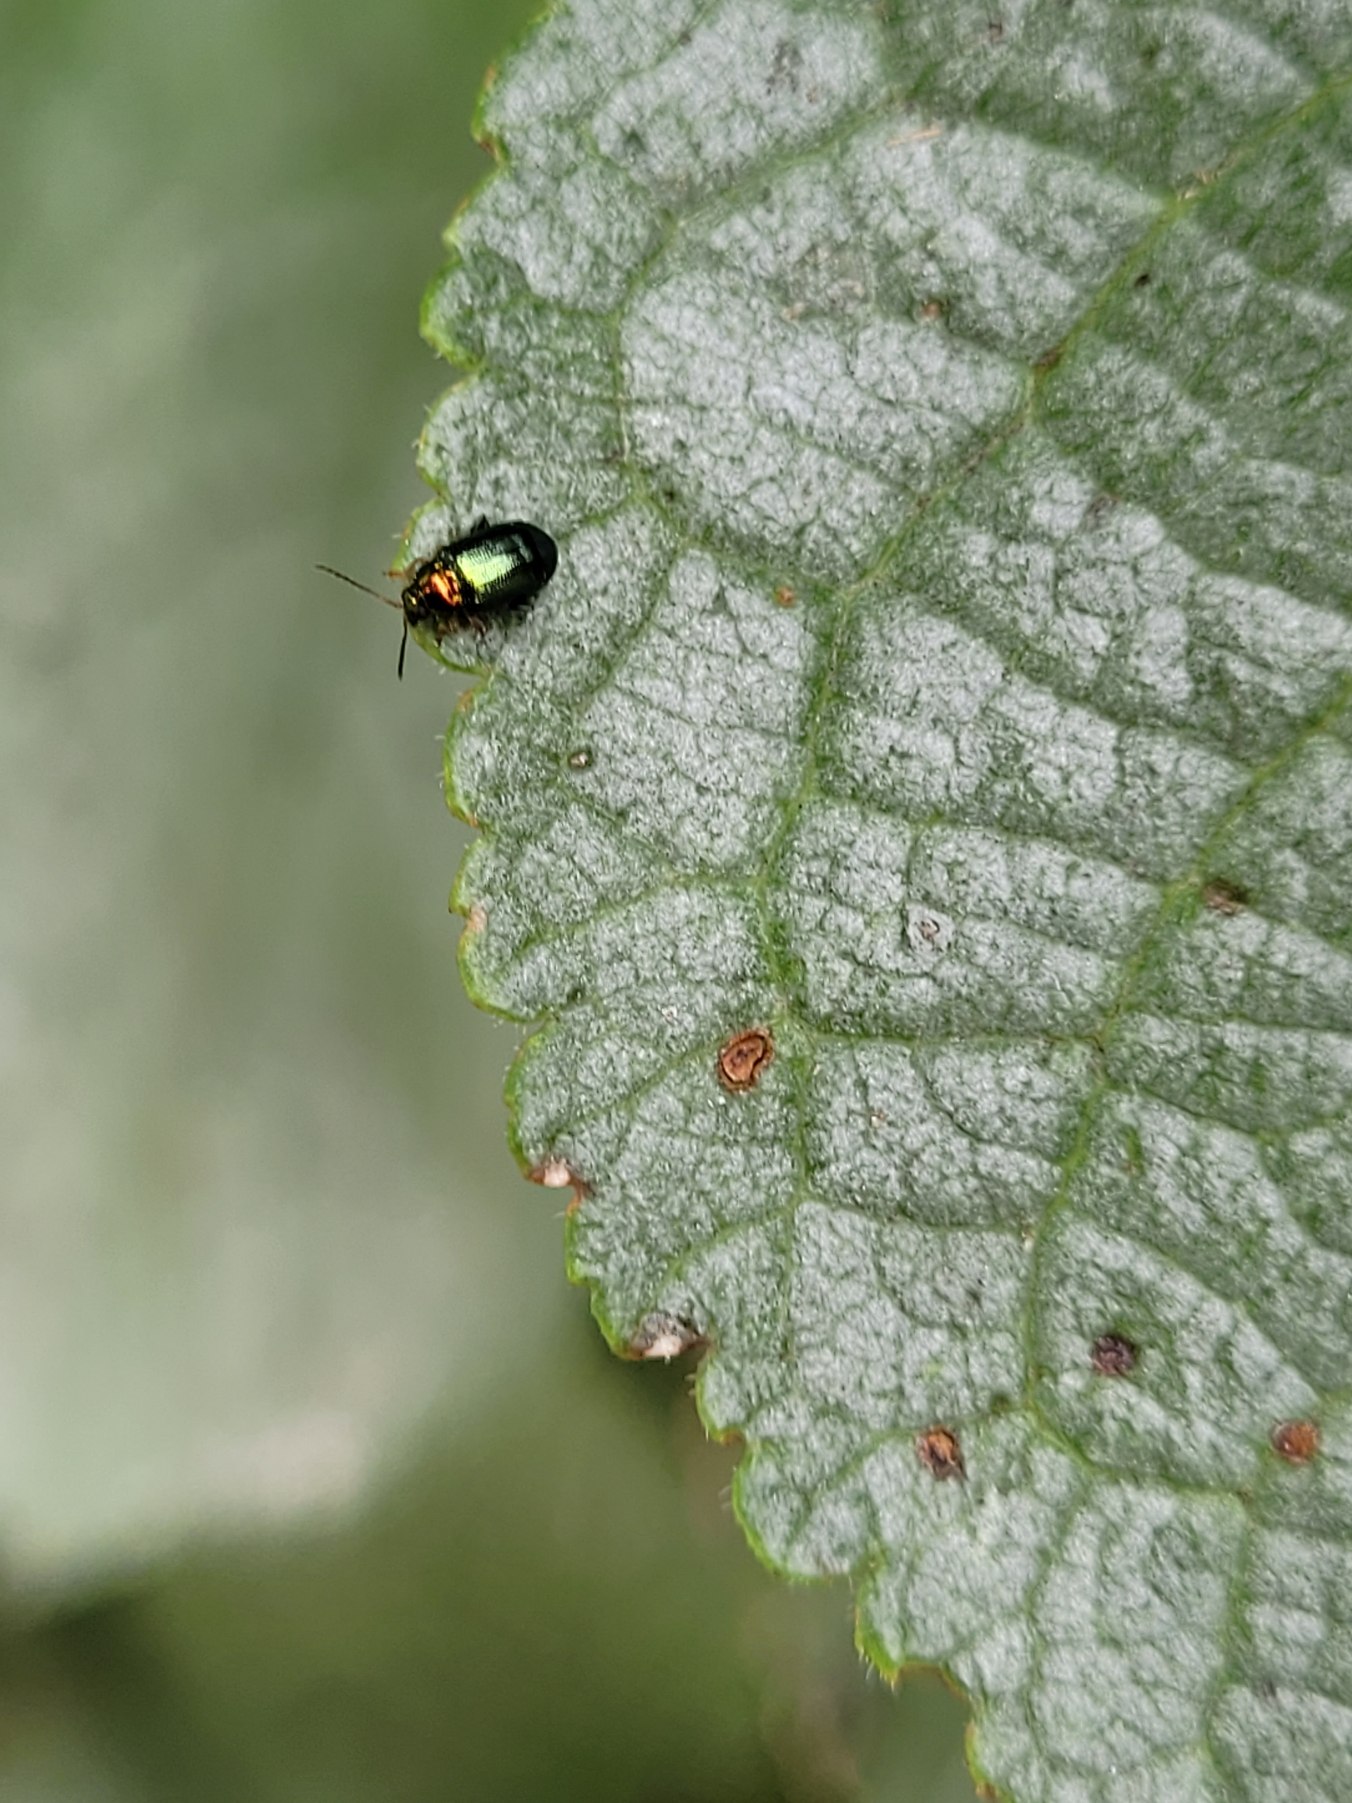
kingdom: Animalia
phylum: Arthropoda
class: Insecta
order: Coleoptera
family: Chrysomelidae
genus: Crepidodera
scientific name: Crepidodera aurata
